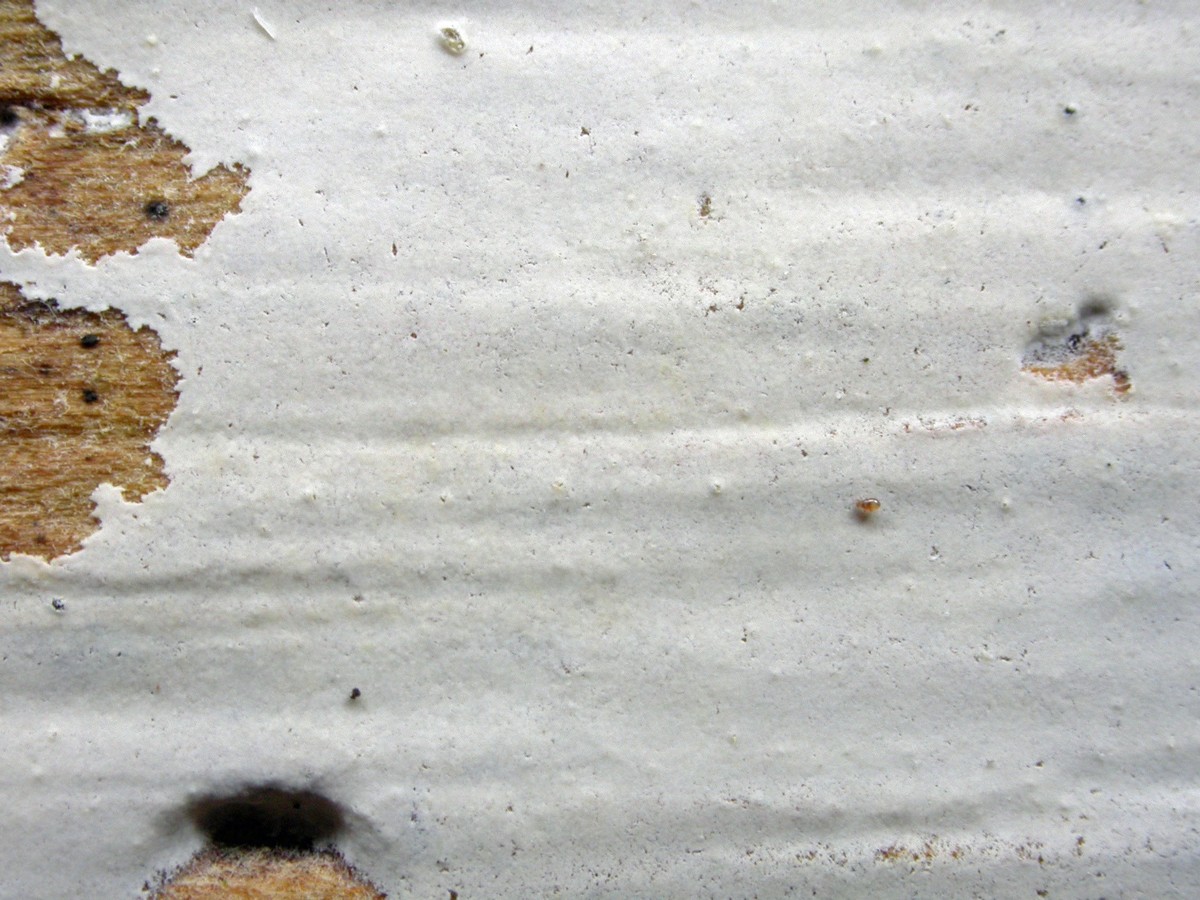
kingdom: Fungi
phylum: Basidiomycota
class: Agaricomycetes
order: Atheliales
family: Atheliaceae
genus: Athelia
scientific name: Athelia neuhoffii
